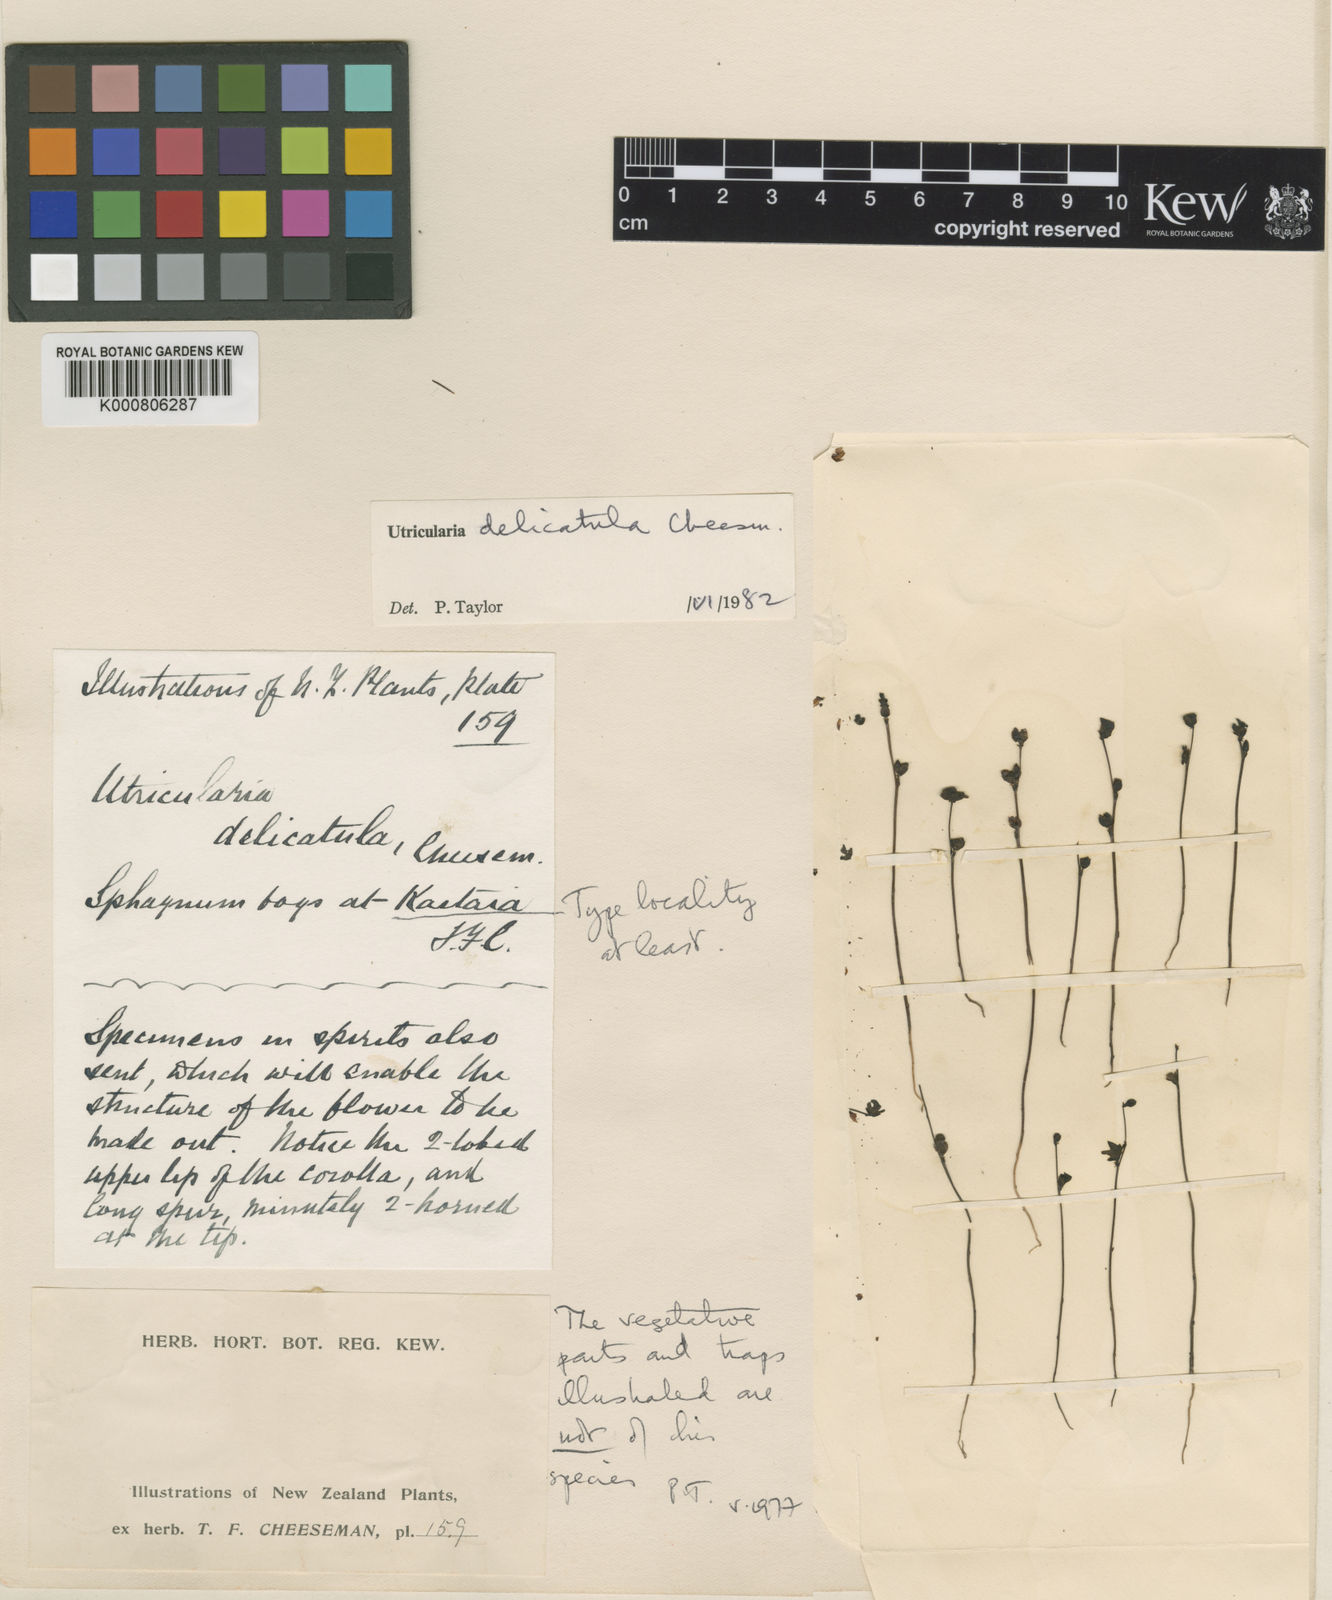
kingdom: Plantae
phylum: Tracheophyta
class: Magnoliopsida
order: Lamiales
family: Lentibulariaceae
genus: Utricularia
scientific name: Utricularia delicatula
